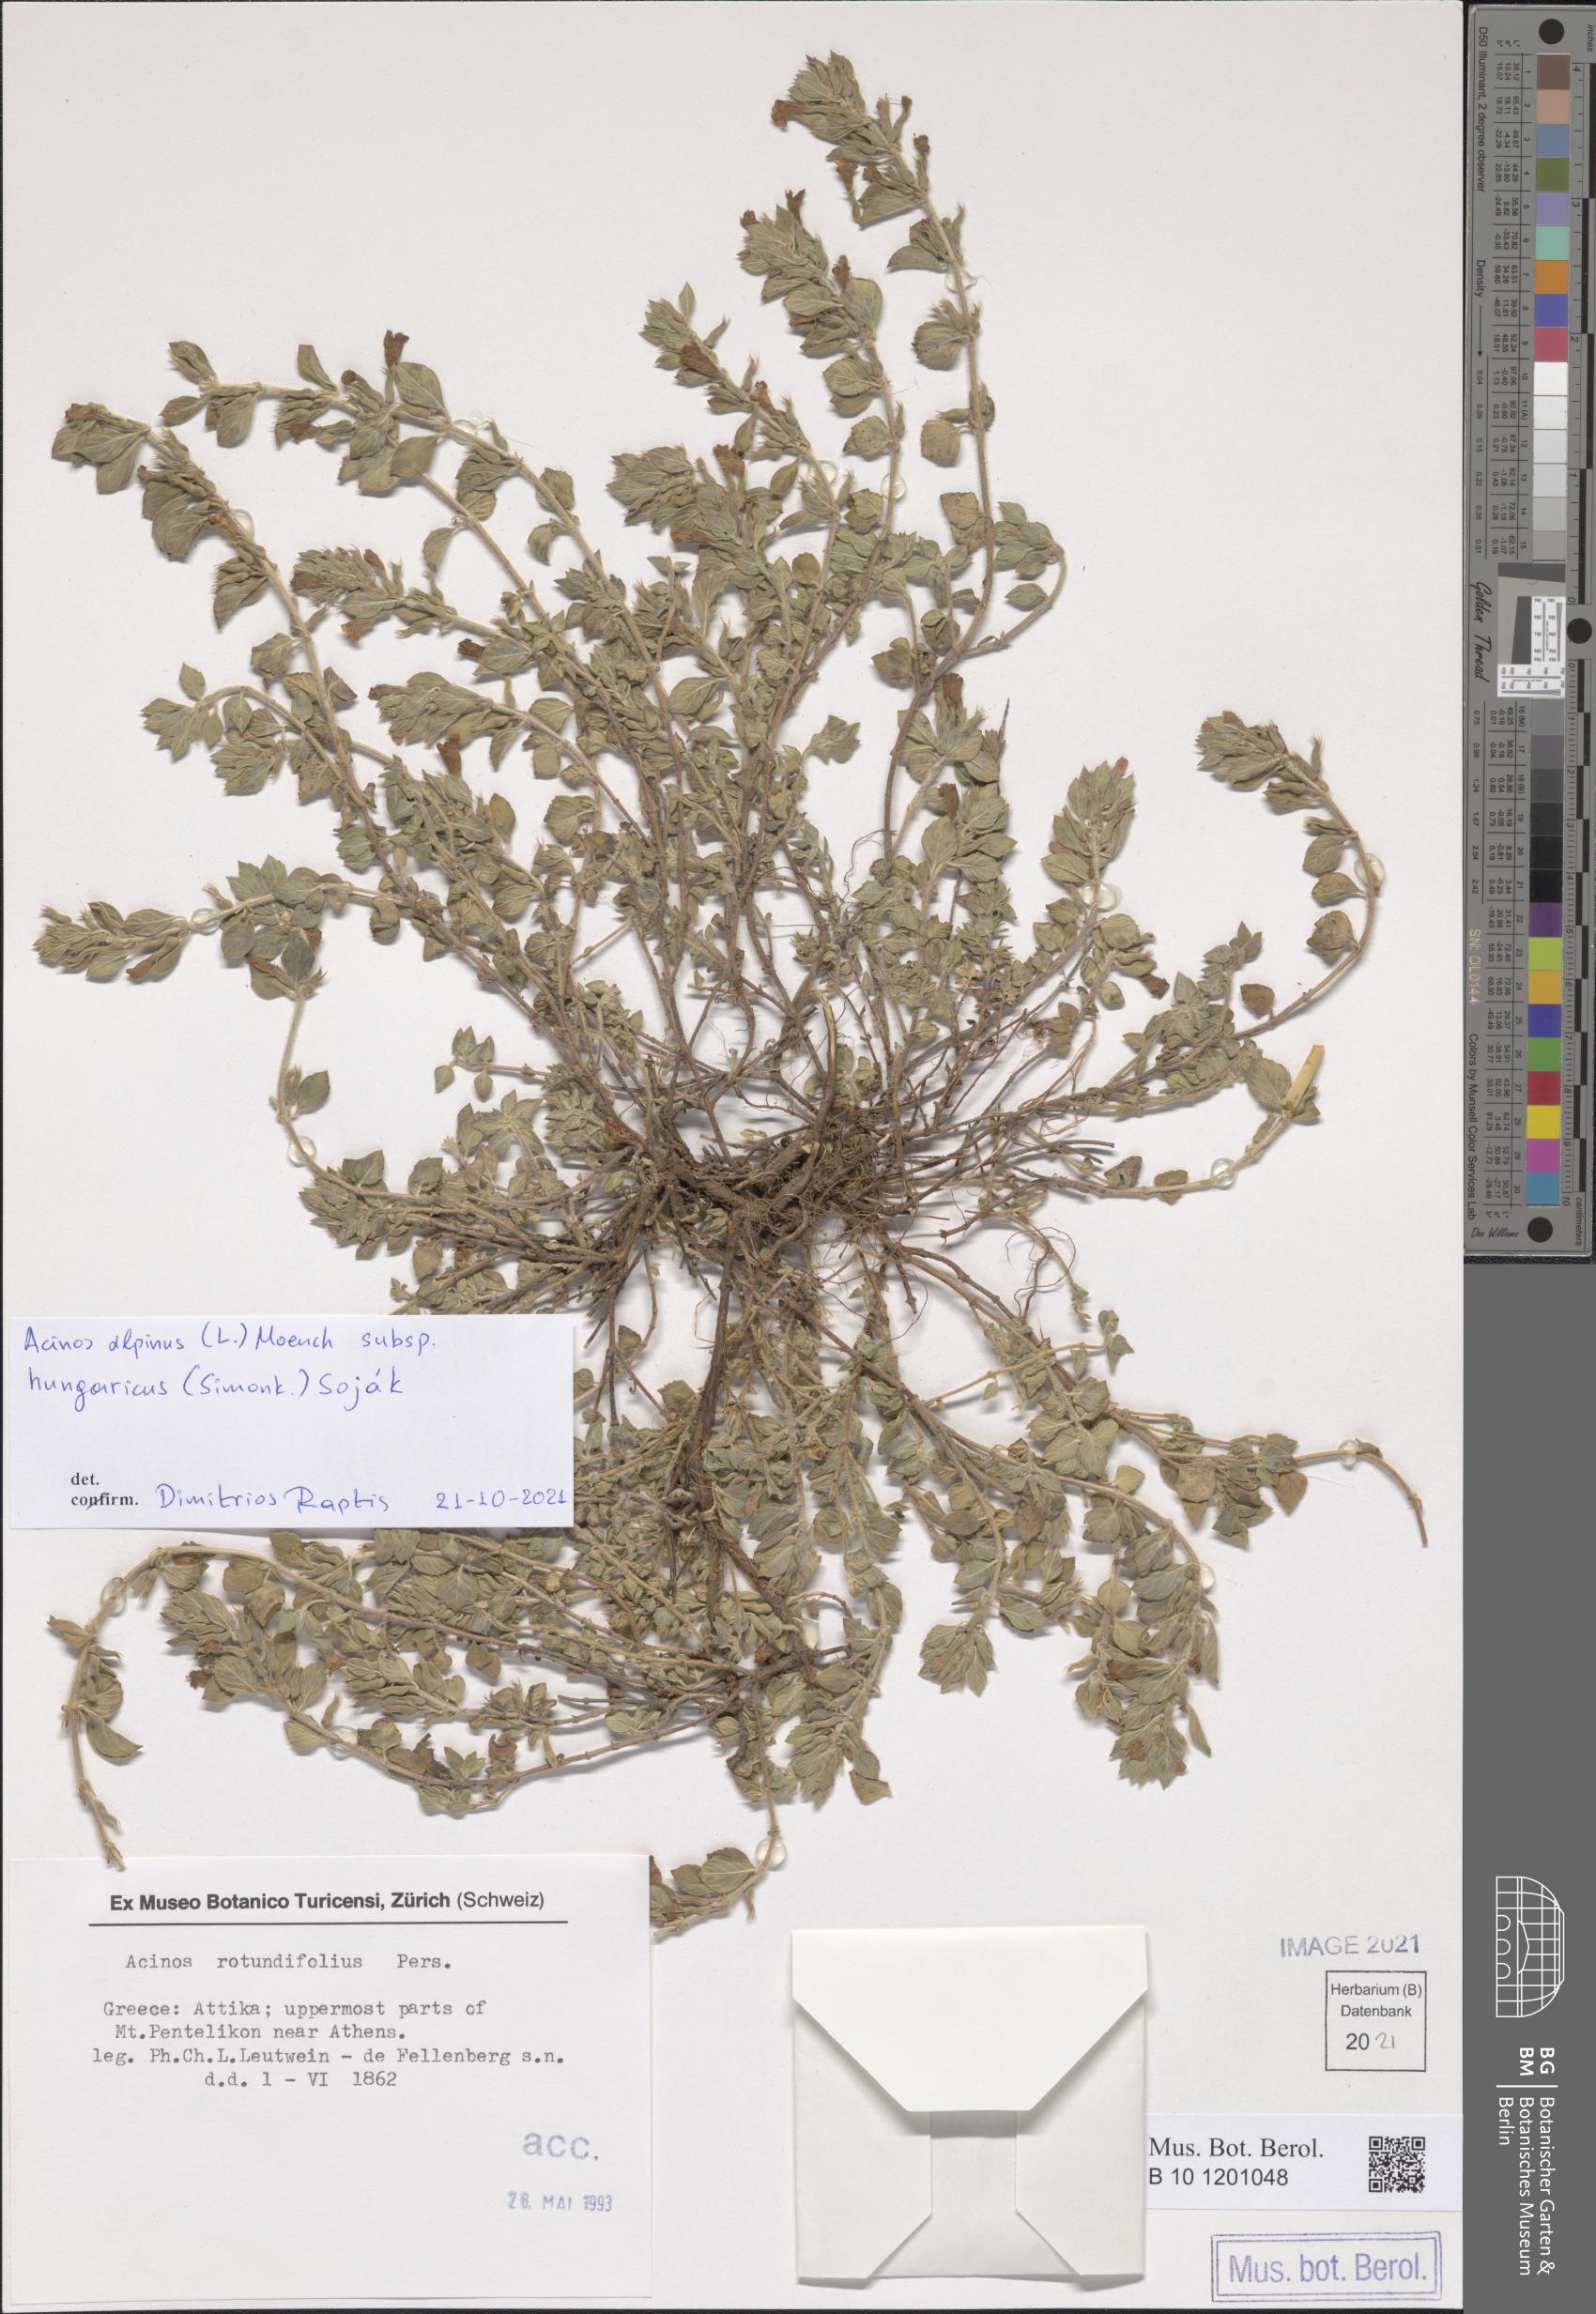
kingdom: Plantae
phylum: Tracheophyta
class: Magnoliopsida
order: Lamiales
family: Lamiaceae
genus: Clinopodium
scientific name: Clinopodium alpinum
